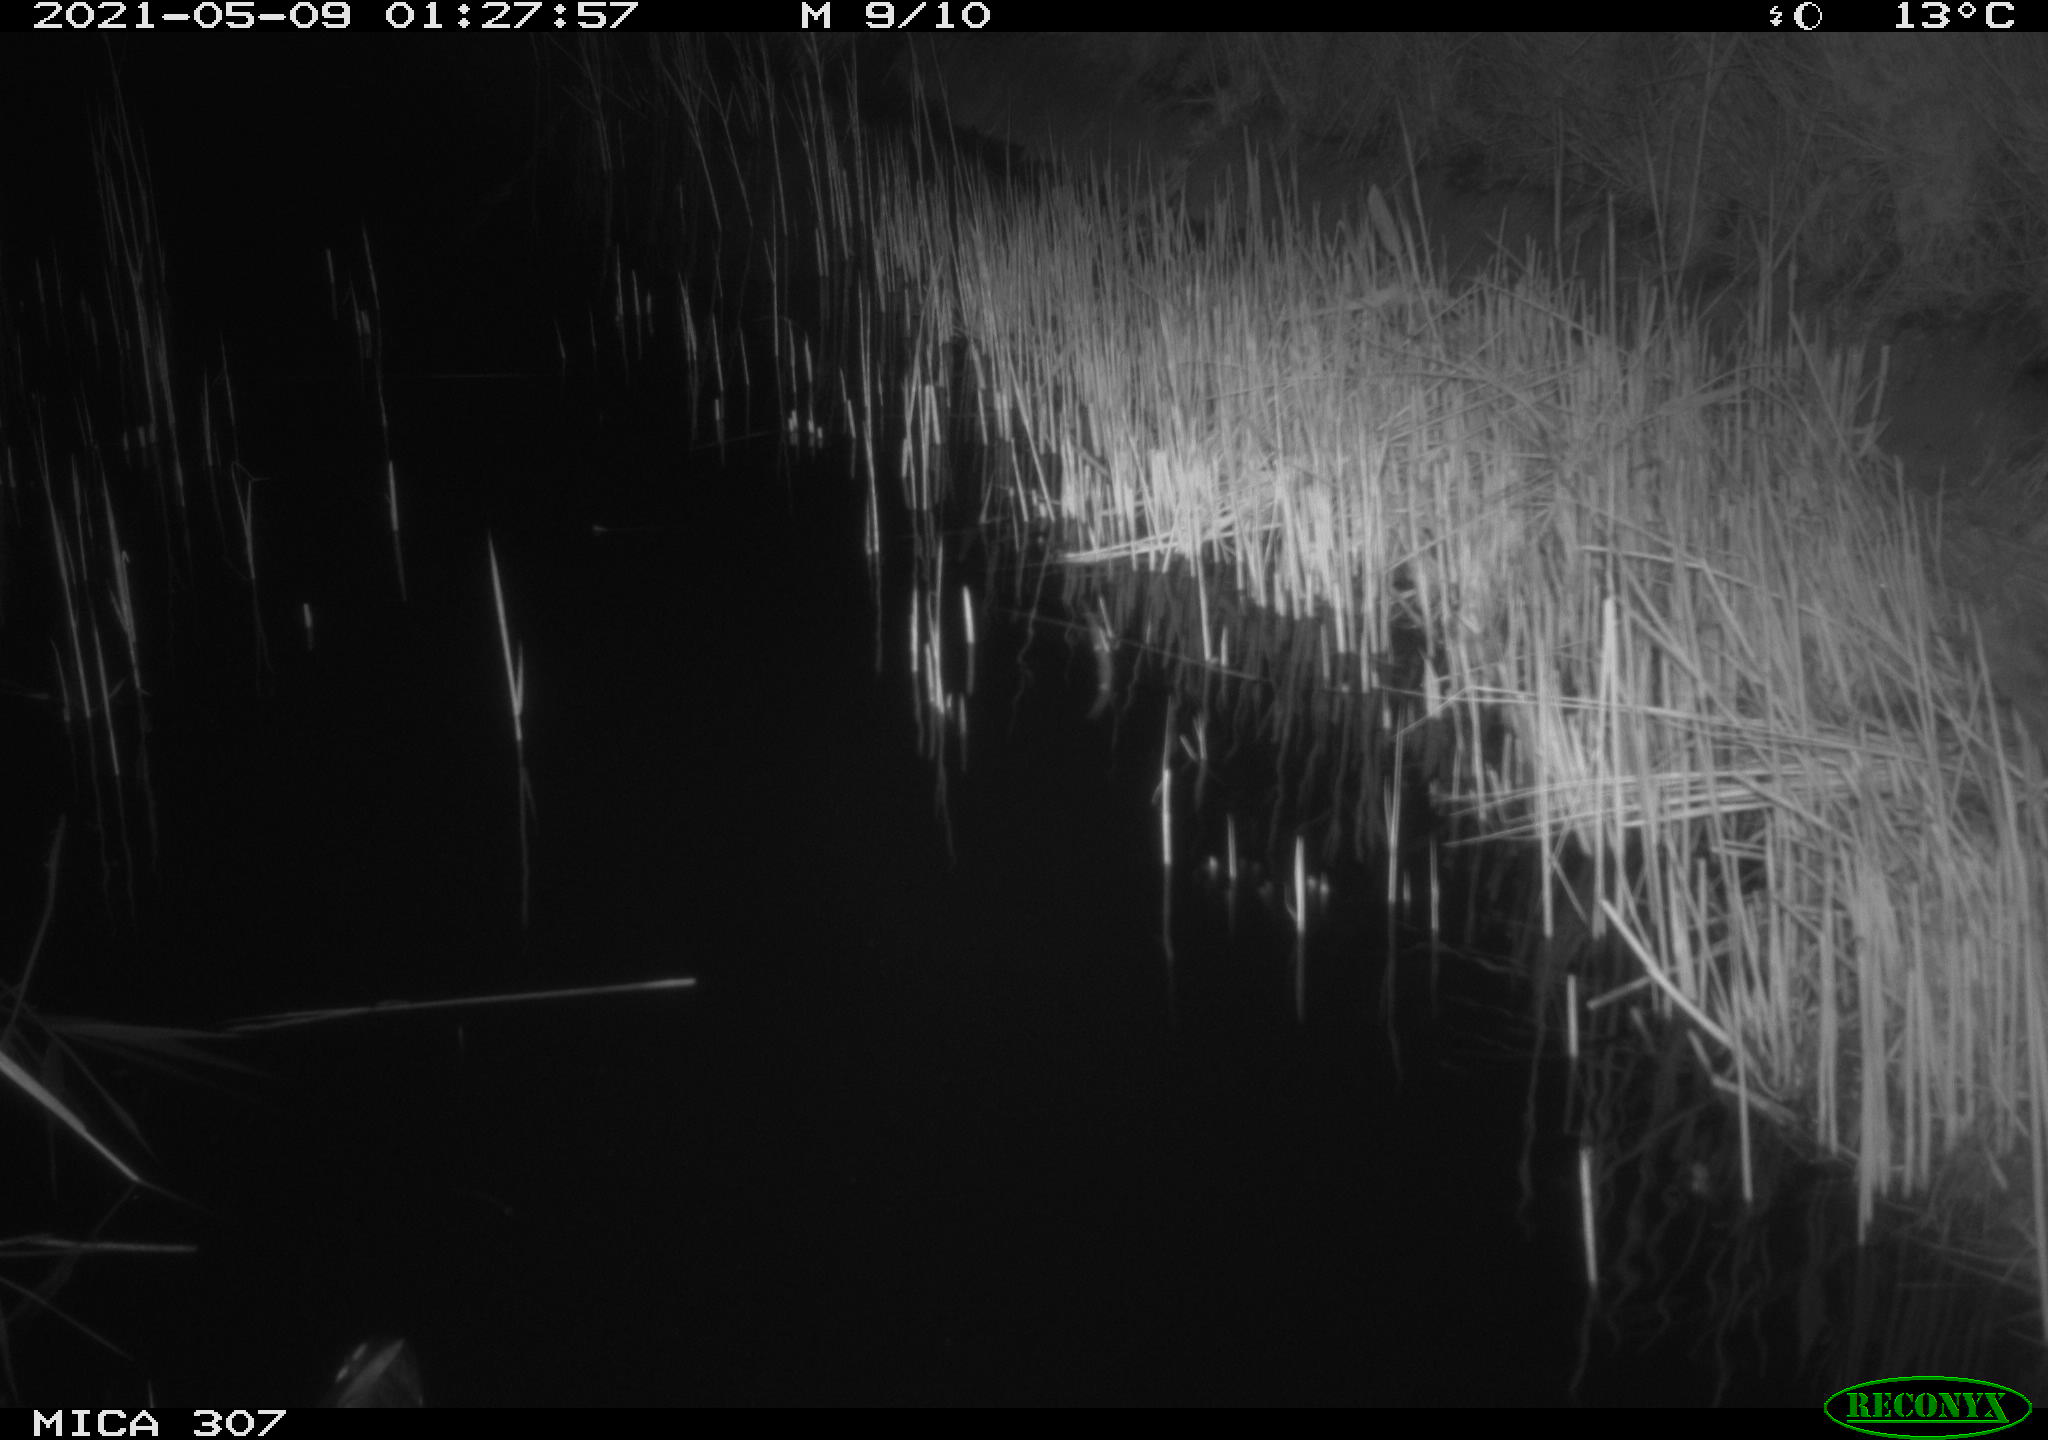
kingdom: Animalia
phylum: Chordata
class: Aves
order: Gruiformes
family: Rallidae
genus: Gallinula
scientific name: Gallinula chloropus
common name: Common moorhen
